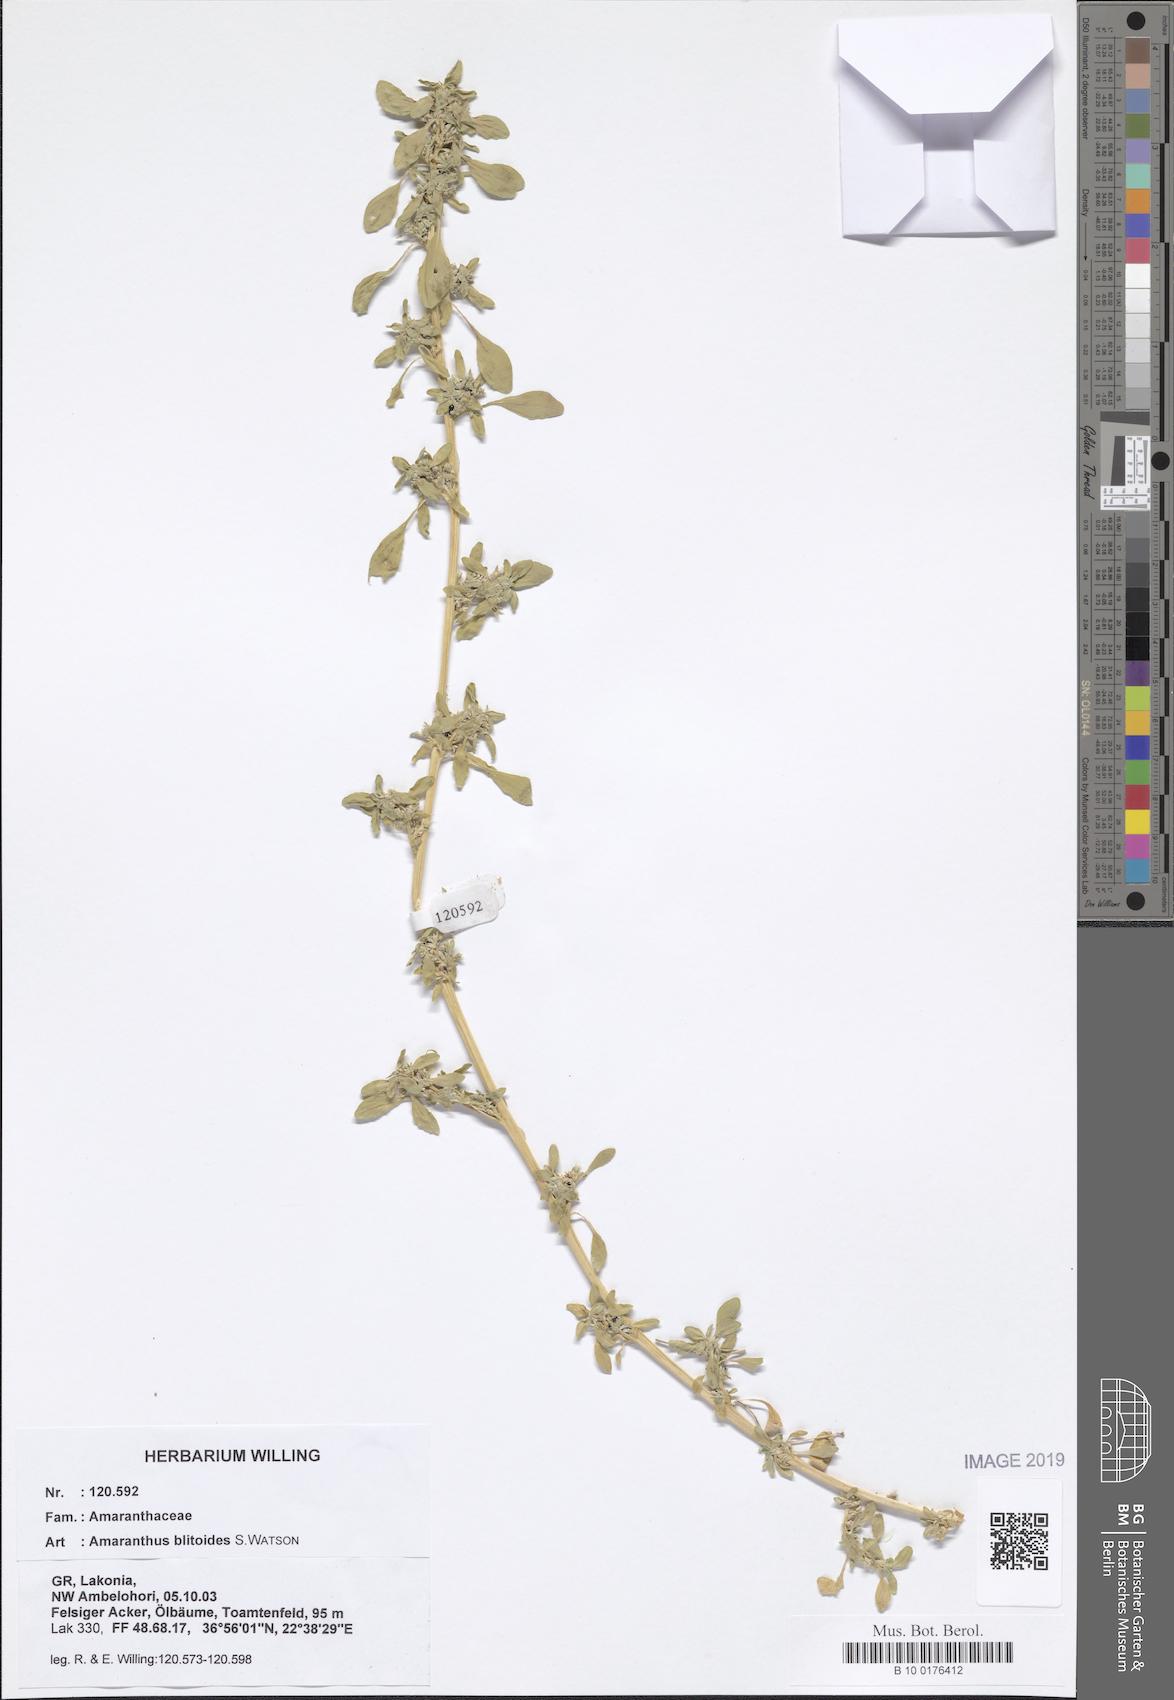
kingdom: Plantae
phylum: Tracheophyta
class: Magnoliopsida
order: Caryophyllales
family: Amaranthaceae
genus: Amaranthus
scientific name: Amaranthus blitoides
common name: Prostrate pigweed
